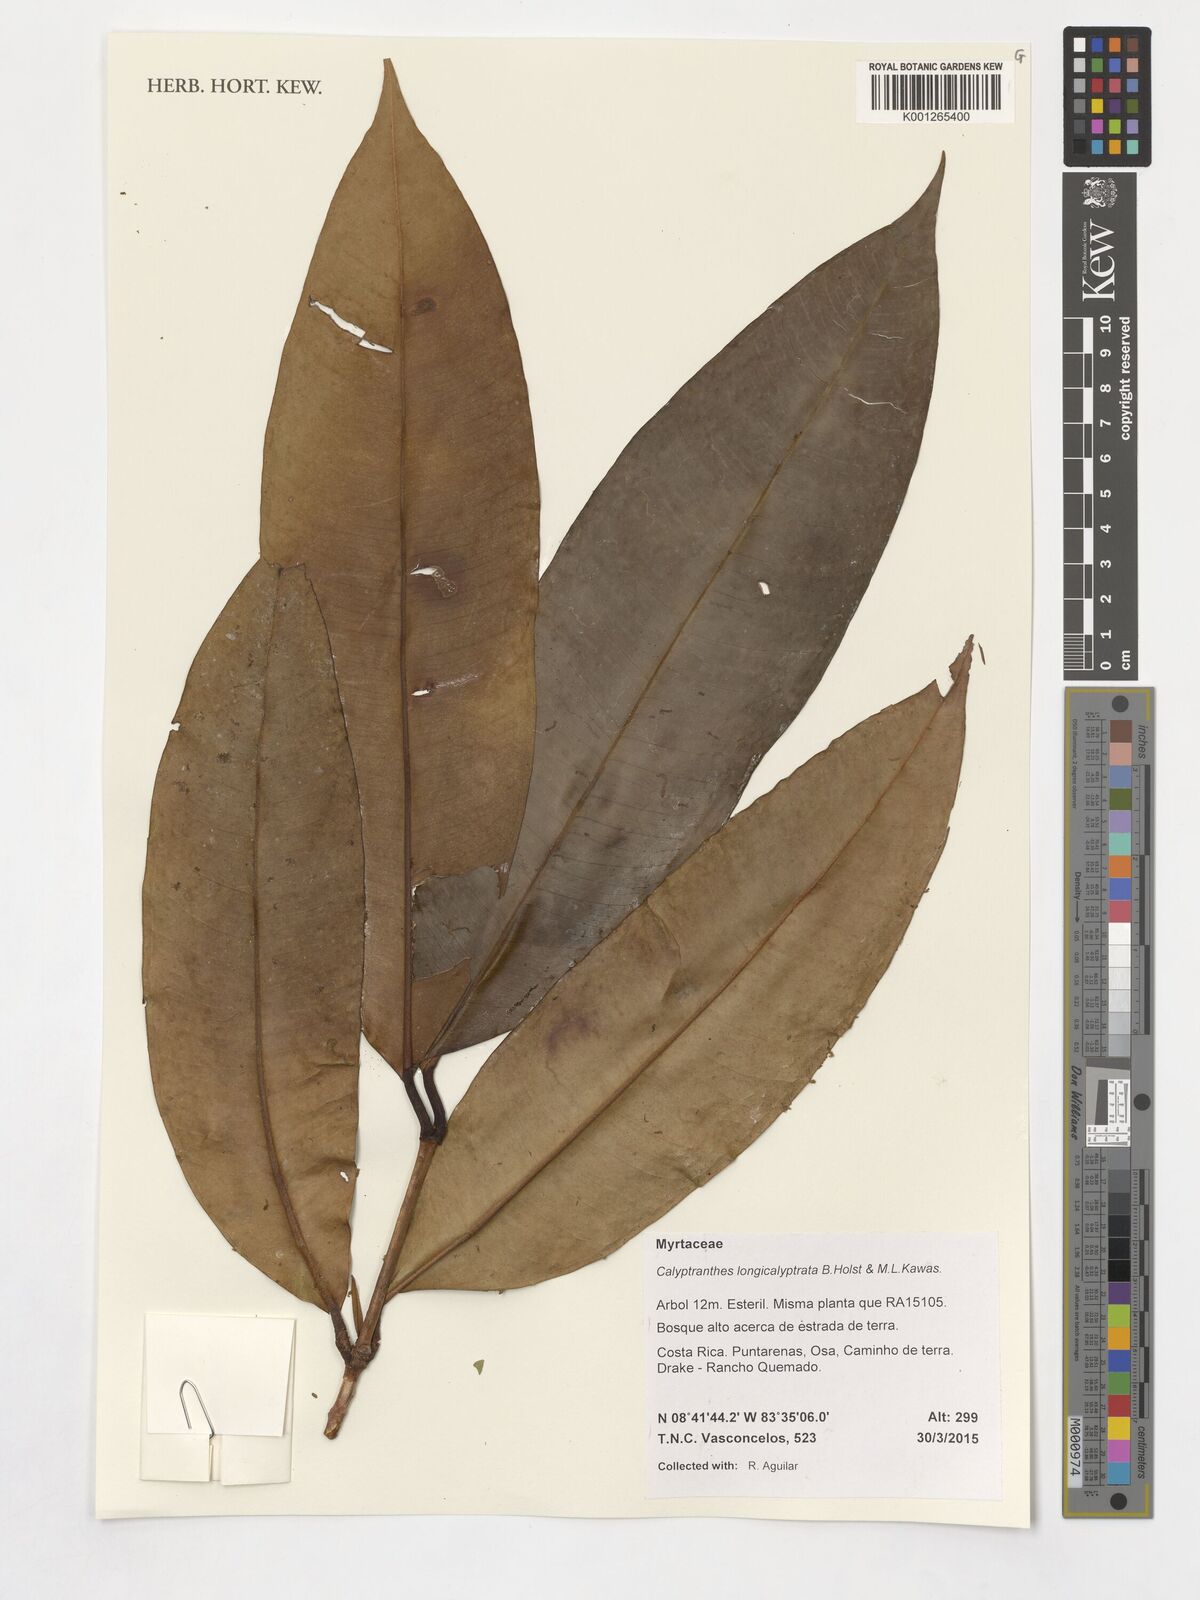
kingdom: Plantae
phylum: Tracheophyta
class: Magnoliopsida
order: Myrtales
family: Myrtaceae
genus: Myrcia
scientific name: Myrcia longicalyptrata
